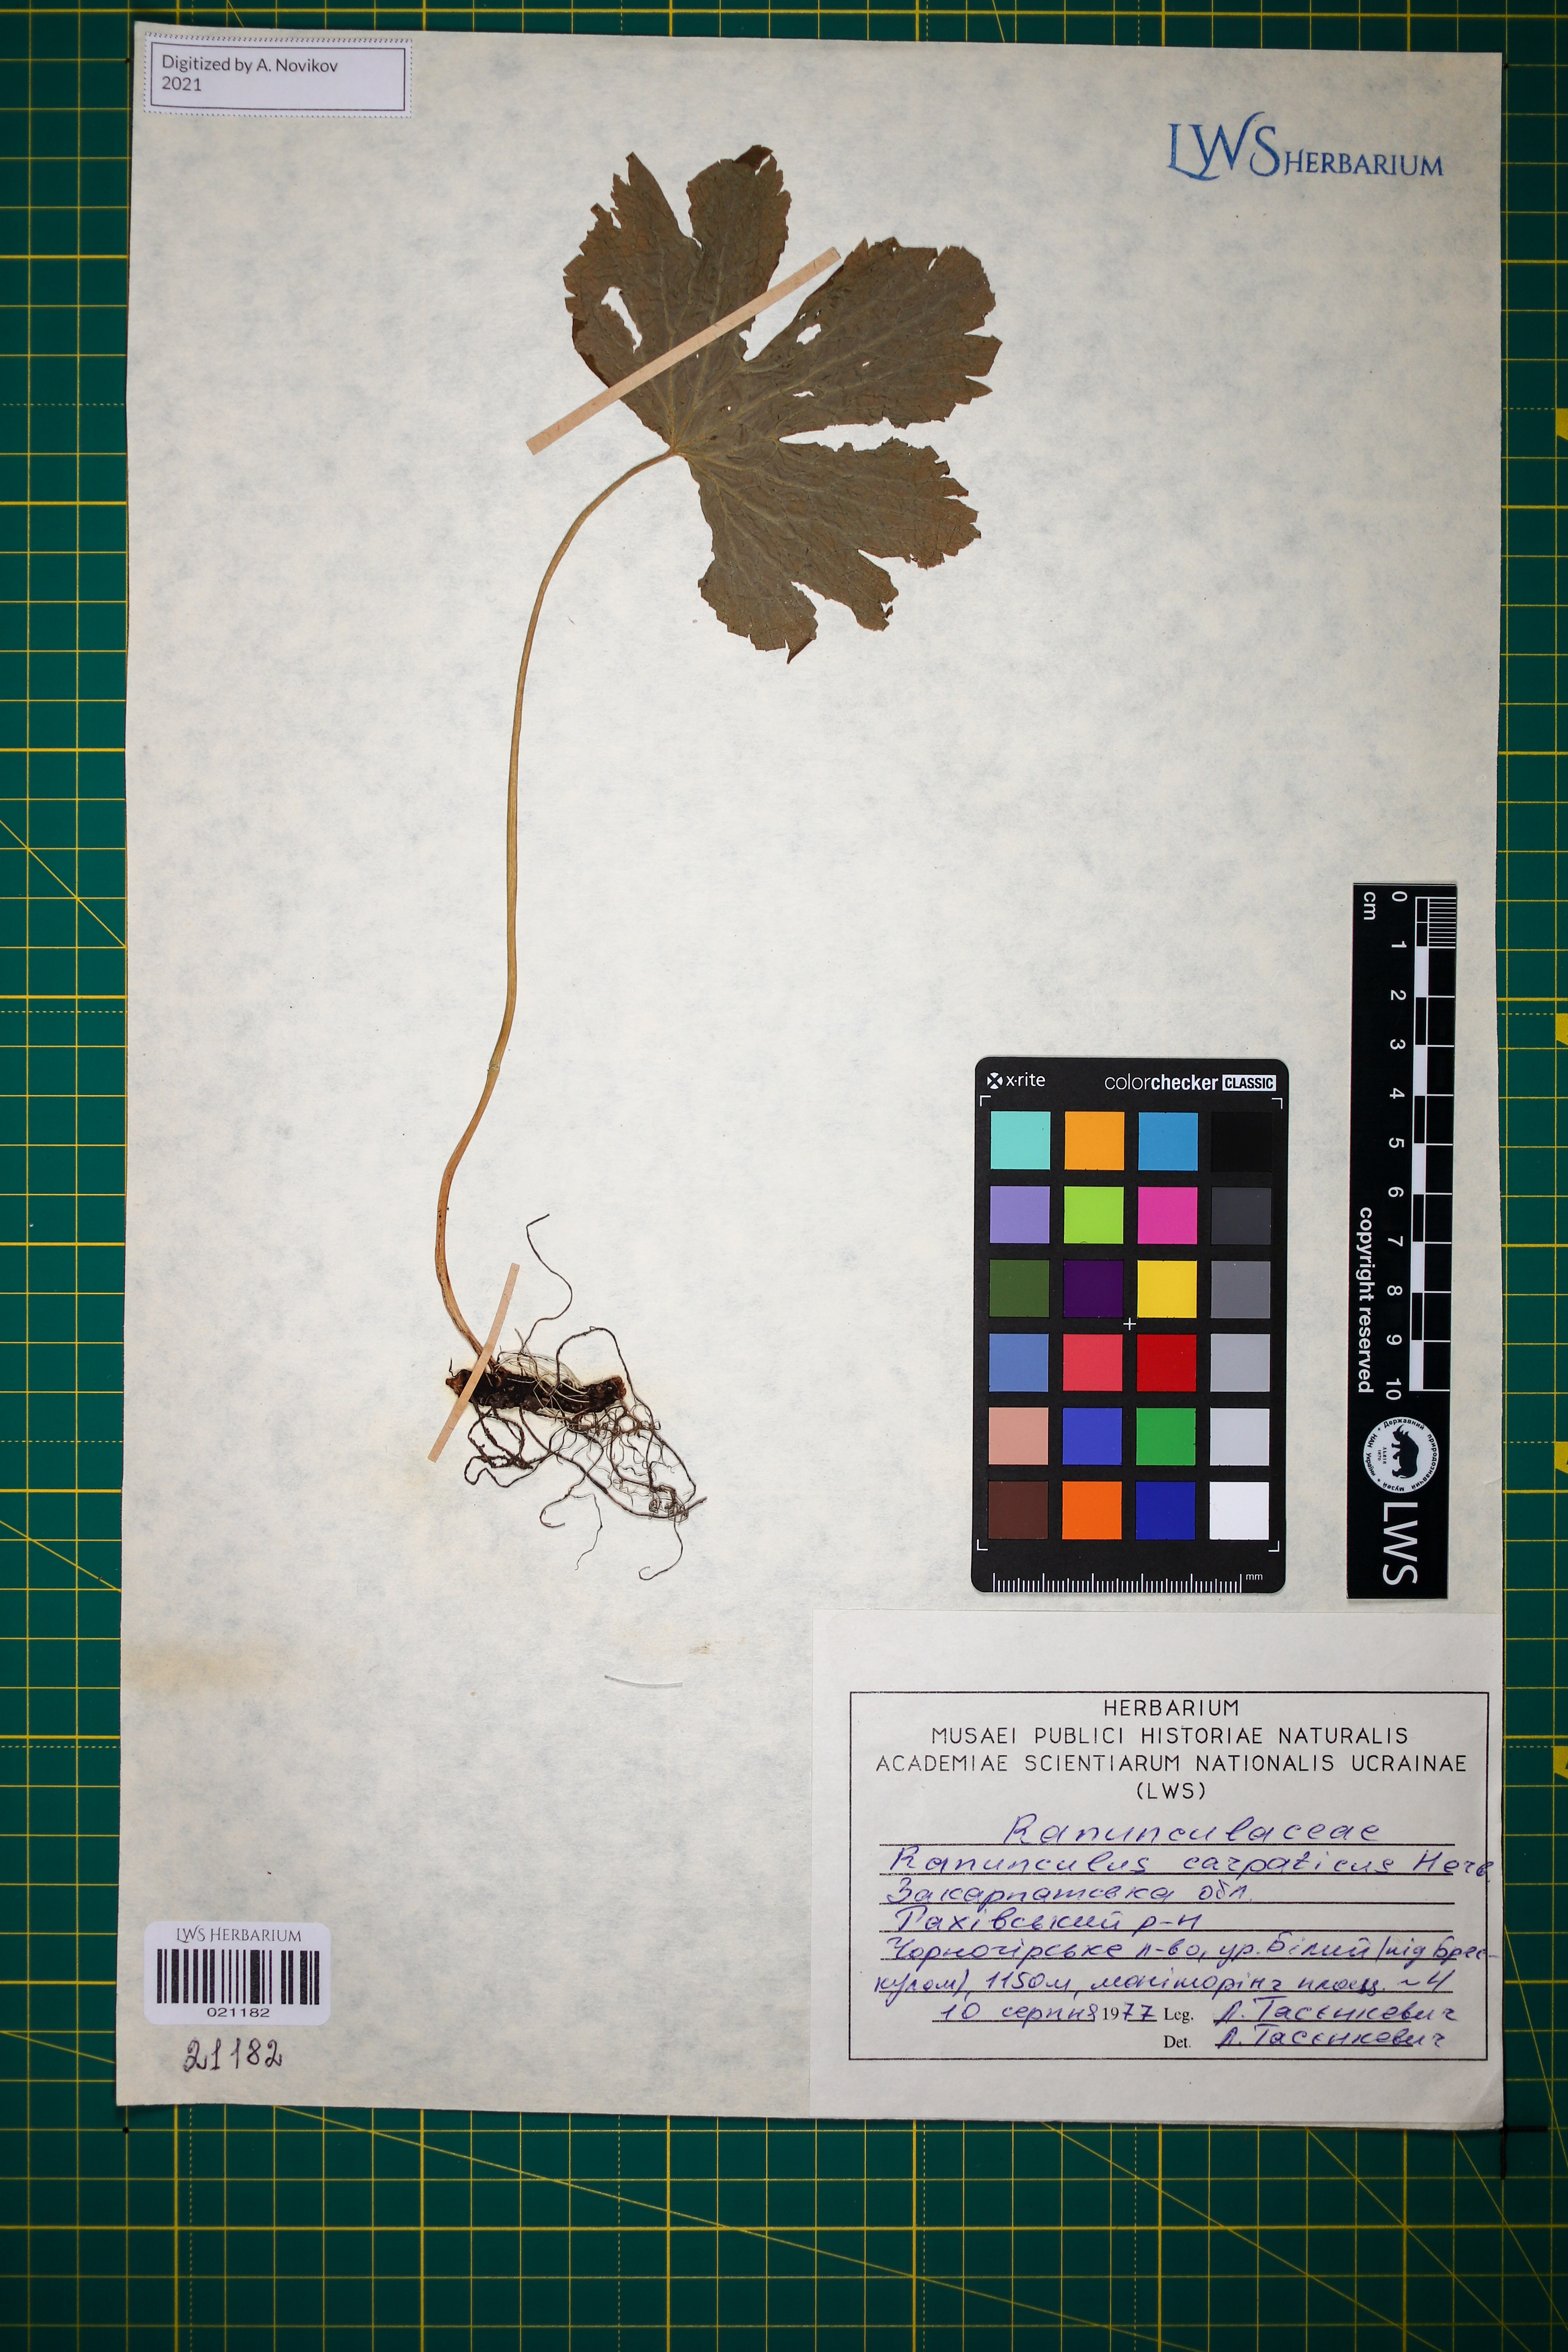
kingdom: Plantae
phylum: Tracheophyta
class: Magnoliopsida
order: Ranunculales
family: Ranunculaceae
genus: Ranunculus
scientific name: Ranunculus carpaticus
